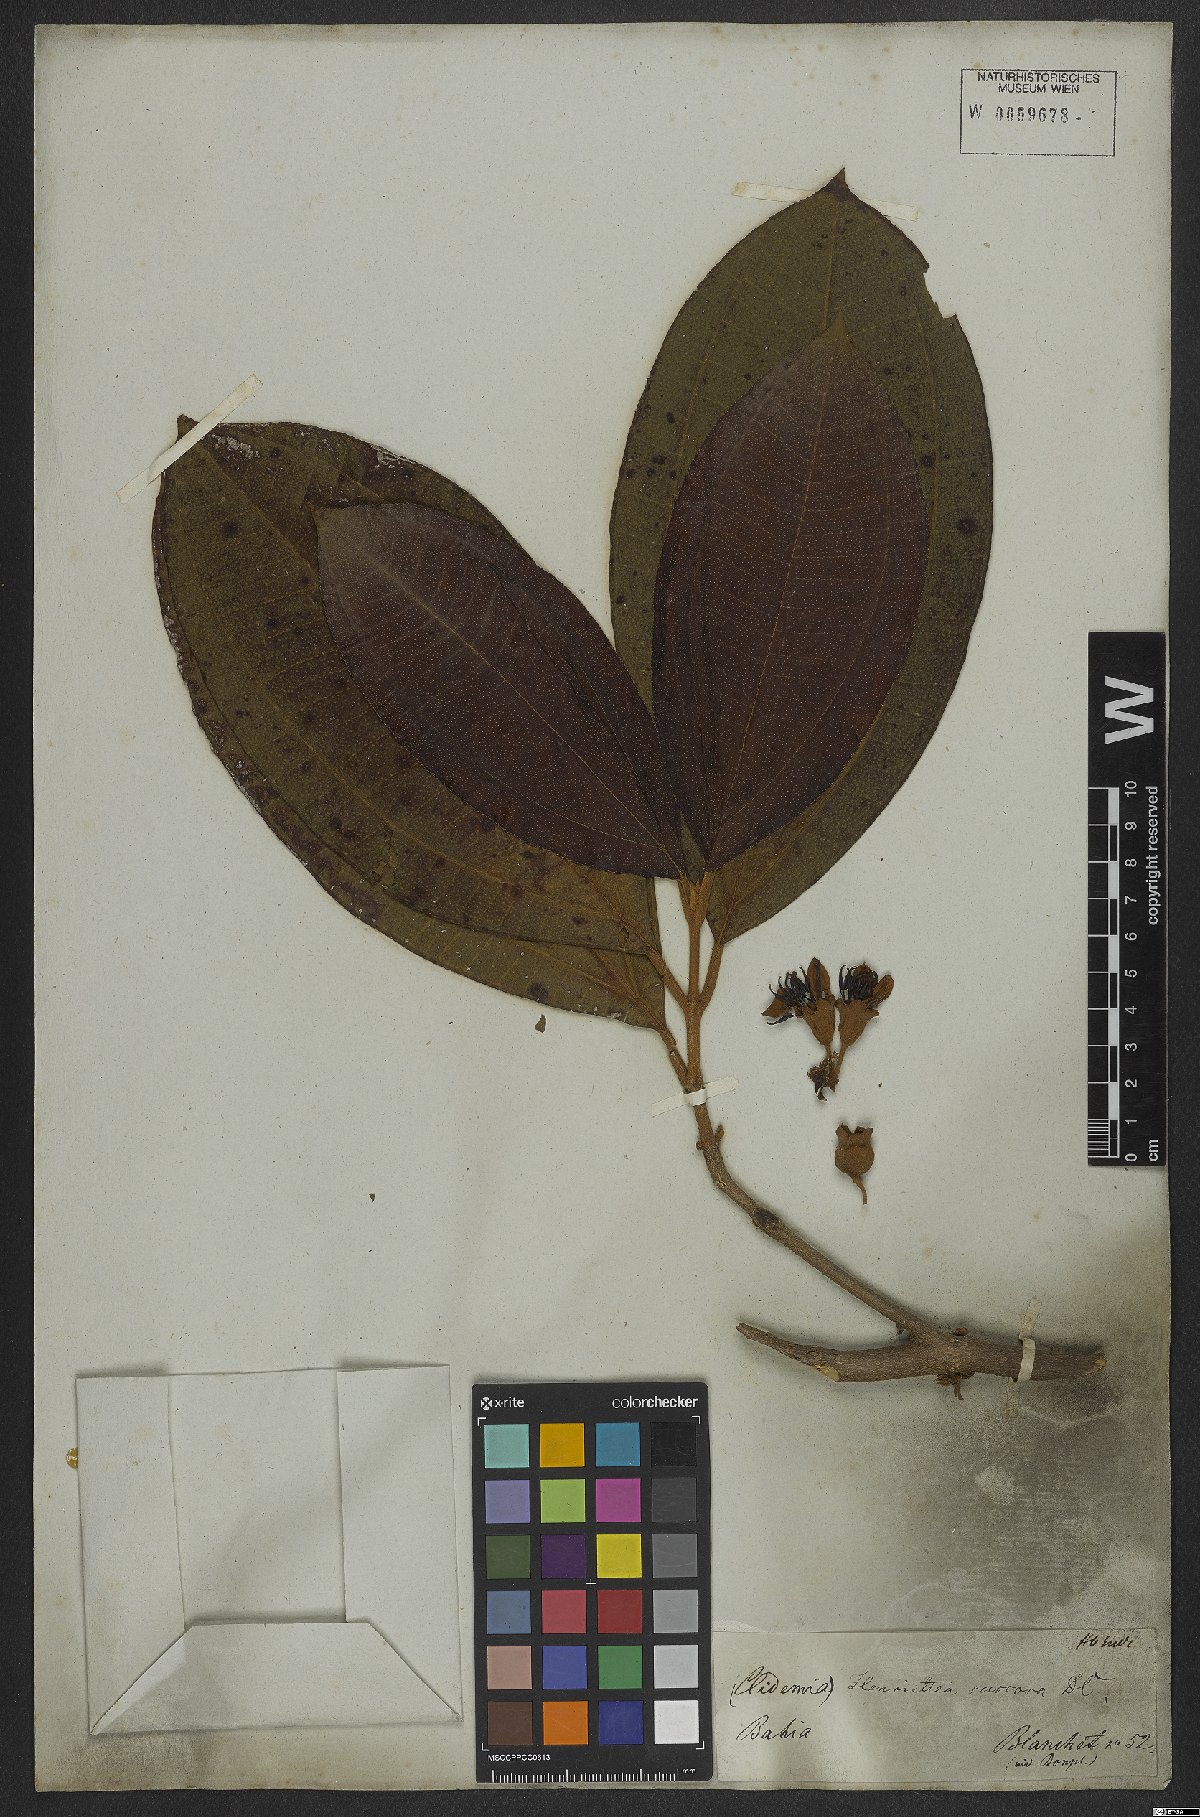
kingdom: Plantae
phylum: Tracheophyta
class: Magnoliopsida
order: Myrtales
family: Melastomataceae
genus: Henriettea
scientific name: Henriettea succosa
